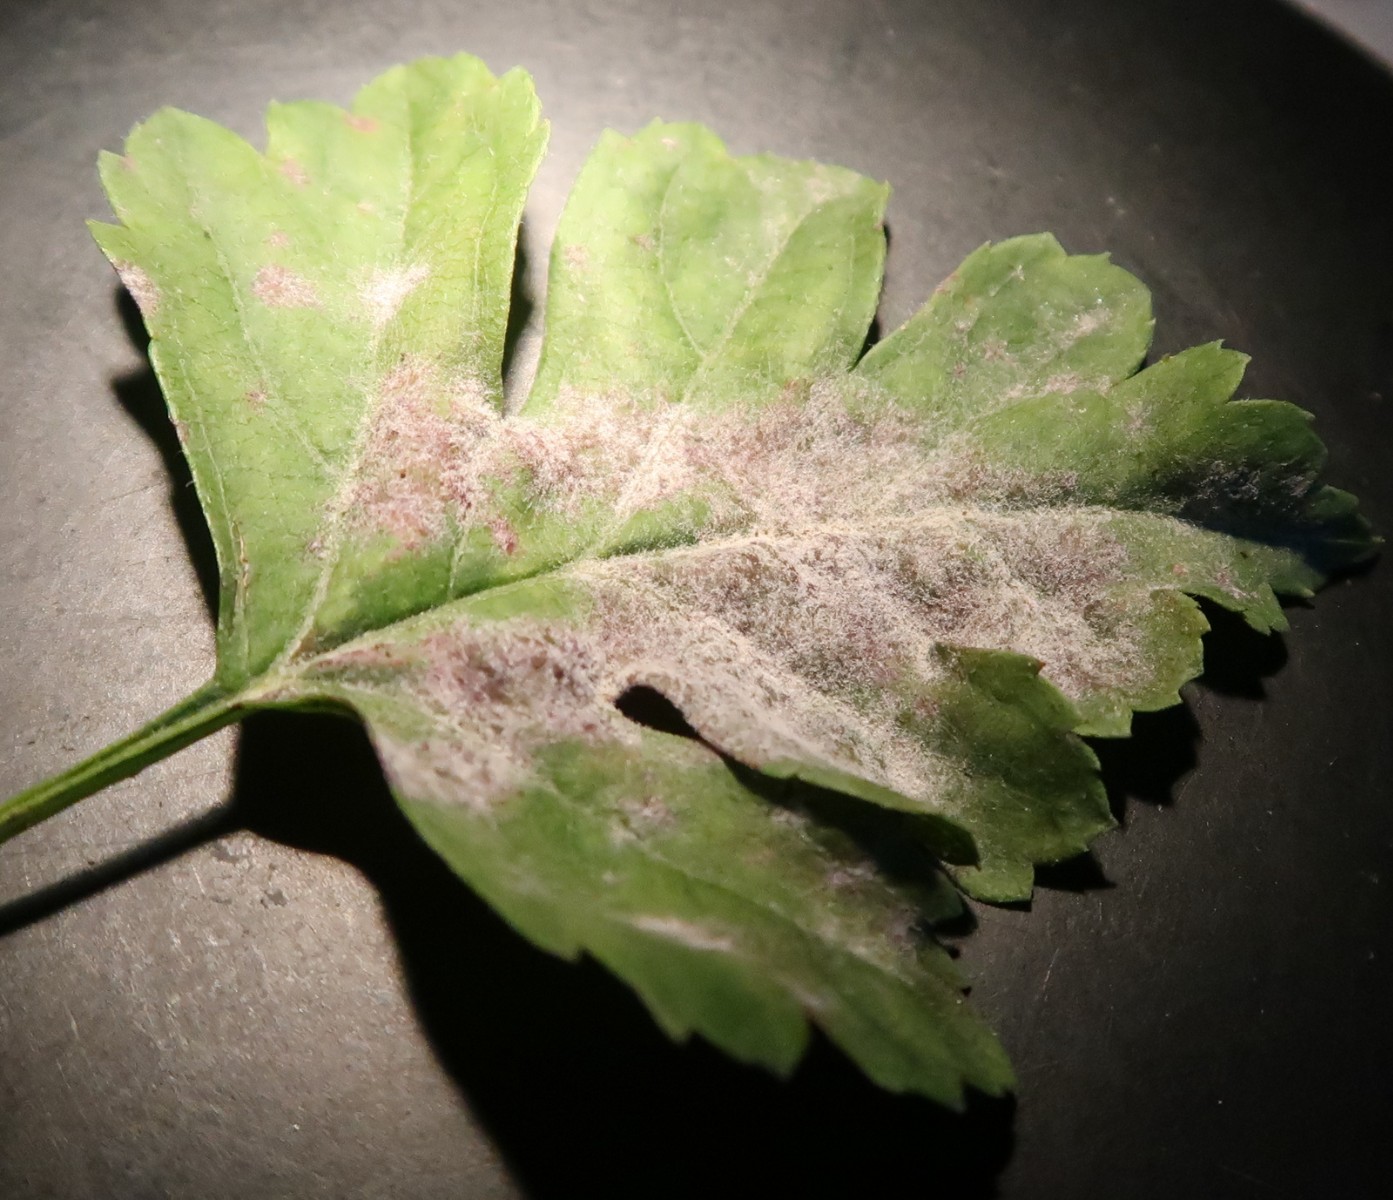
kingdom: Fungi
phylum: Ascomycota
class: Leotiomycetes
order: Helotiales
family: Erysiphaceae
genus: Podosphaera
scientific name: Podosphaera clandestina
